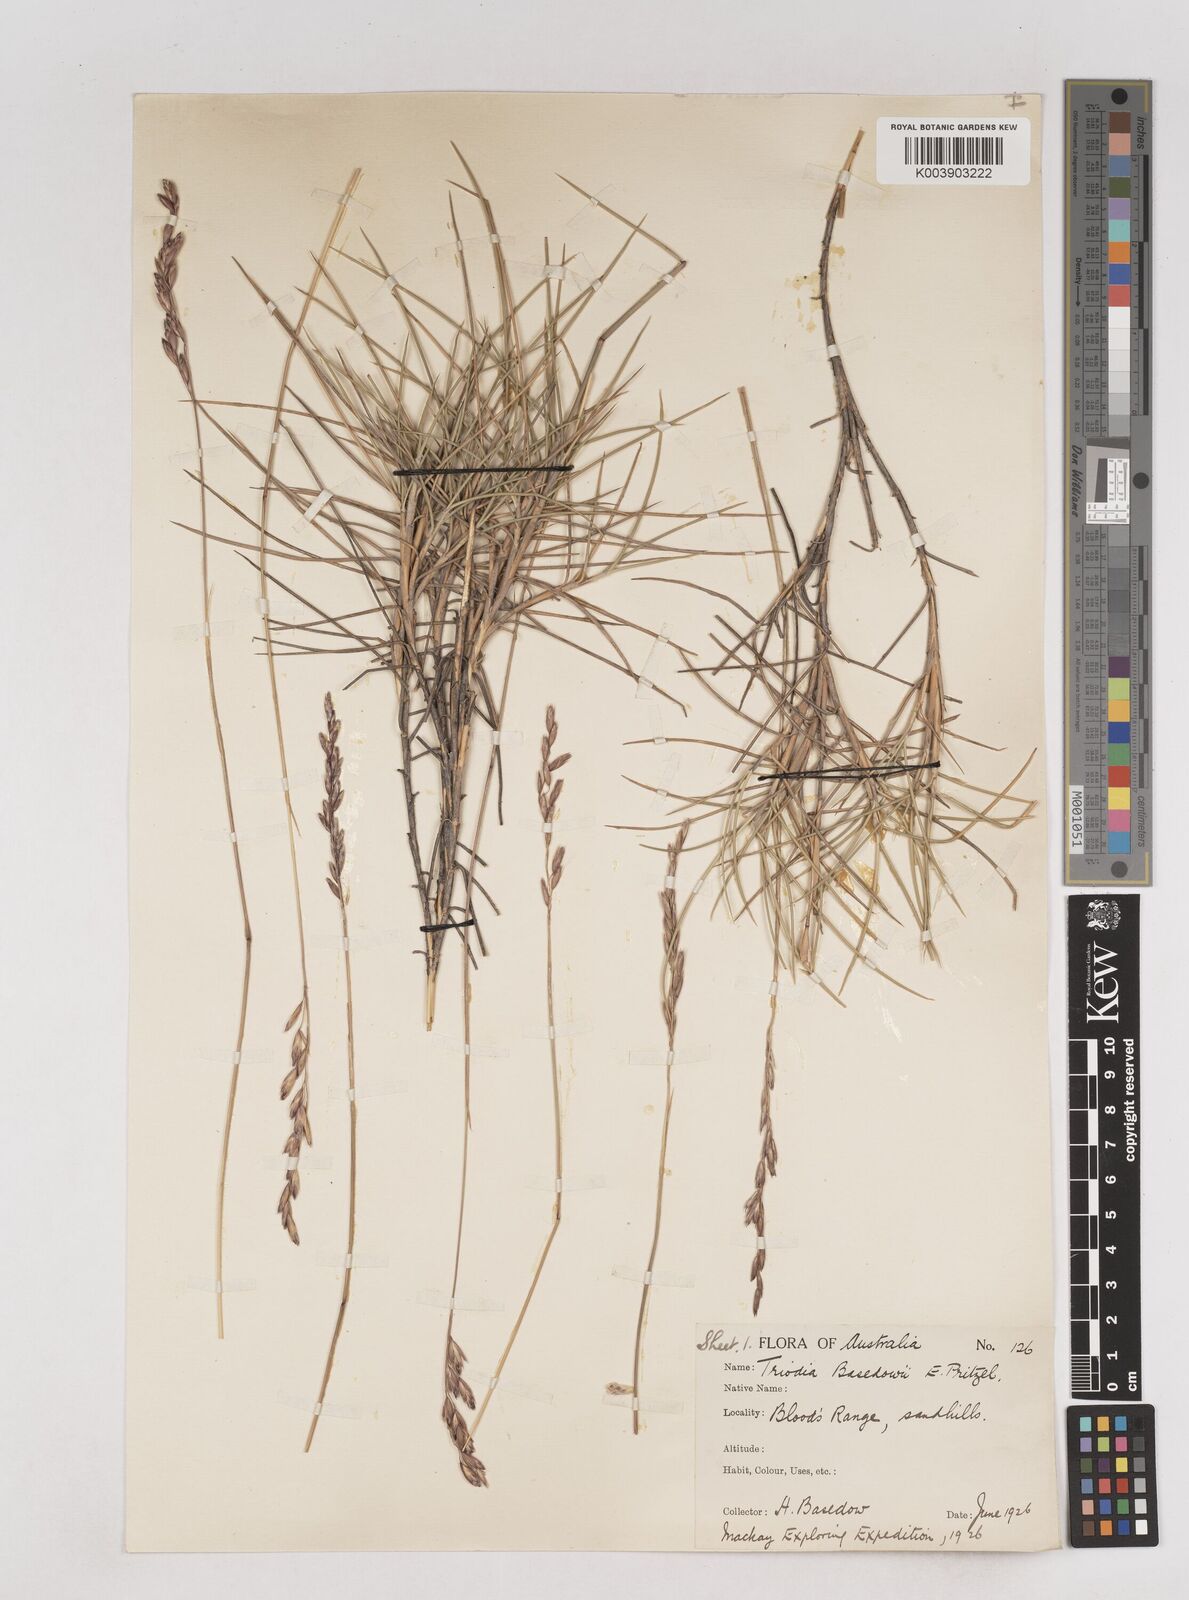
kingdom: Plantae
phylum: Tracheophyta
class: Liliopsida
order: Poales
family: Poaceae
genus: Triodia
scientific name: Triodia basedowii
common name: Hard spinifex
